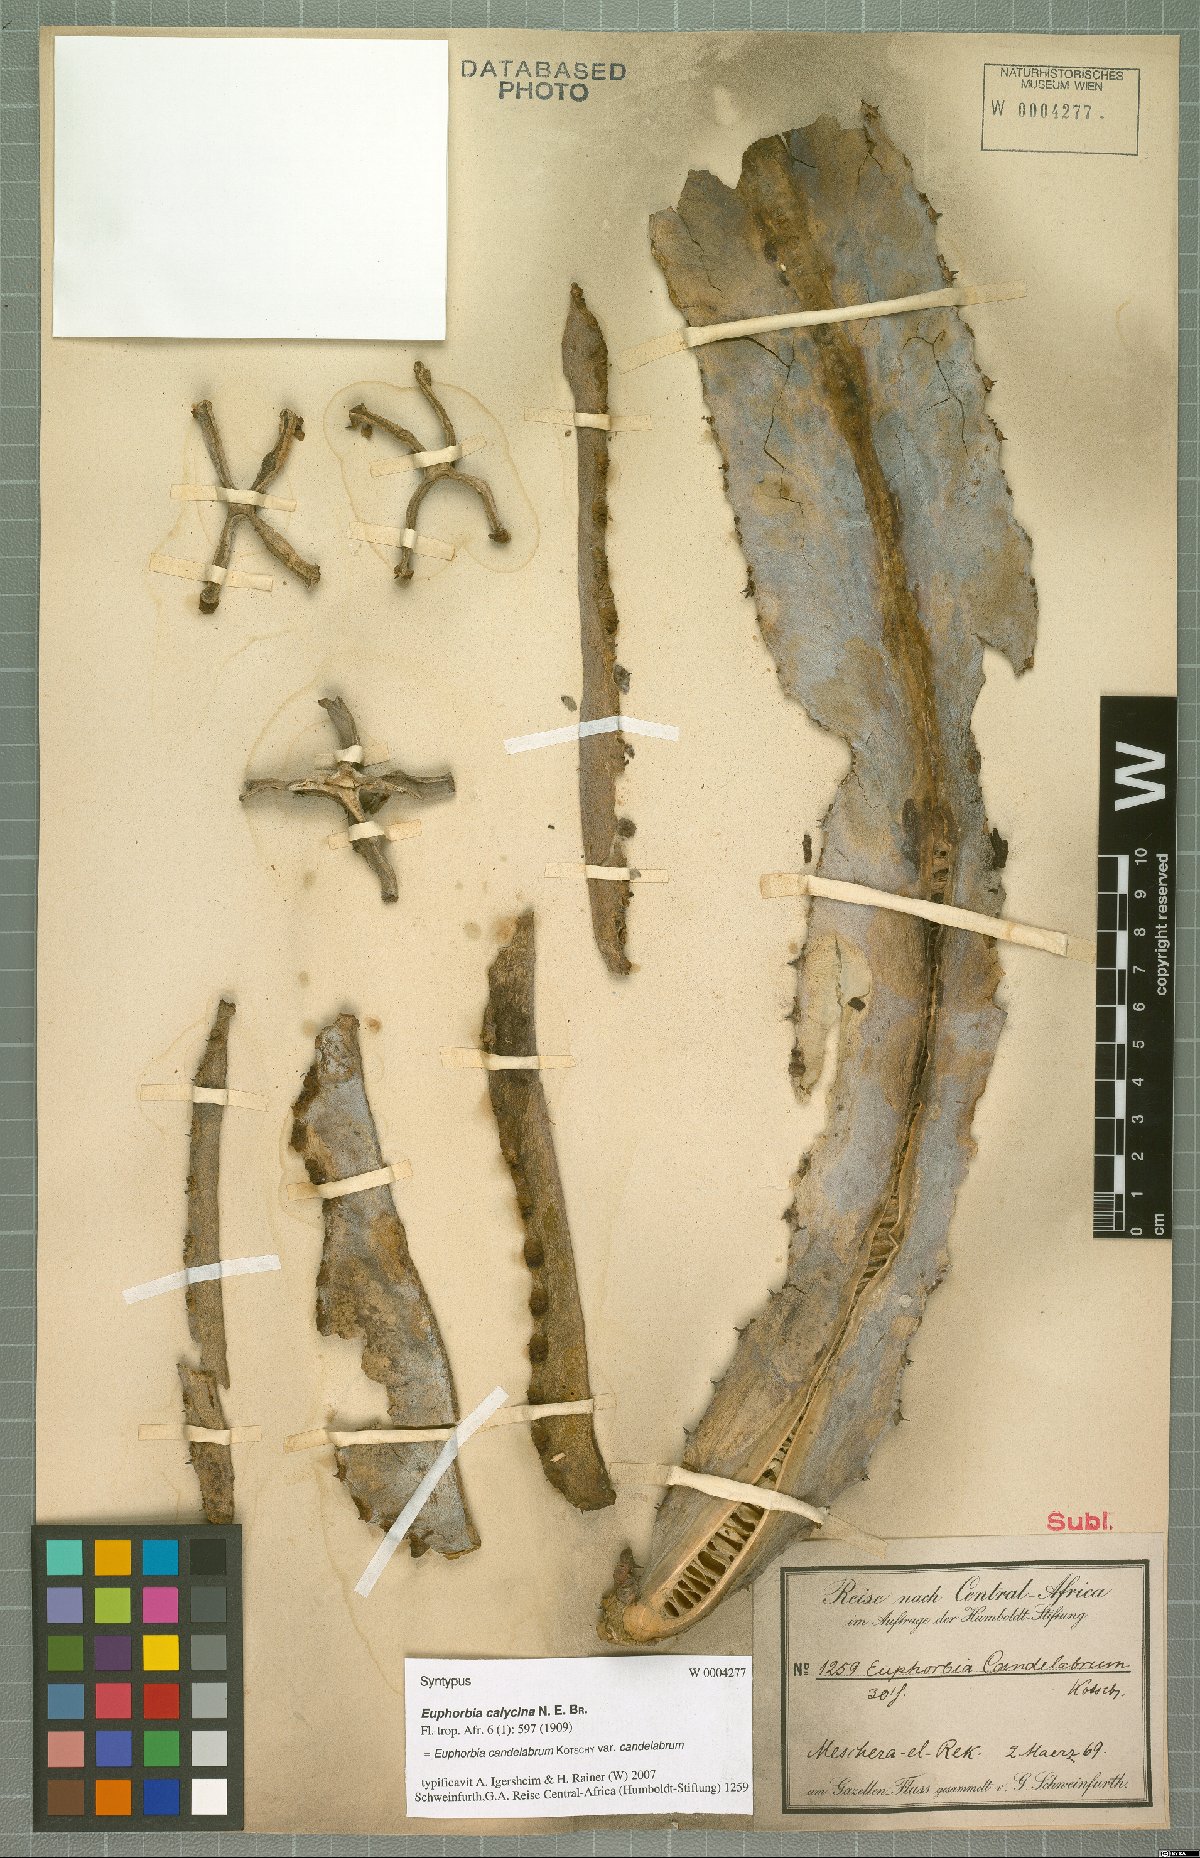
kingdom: Plantae
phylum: Tracheophyta
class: Magnoliopsida
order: Malpighiales
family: Euphorbiaceae
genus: Euphorbia
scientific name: Euphorbia murielii
